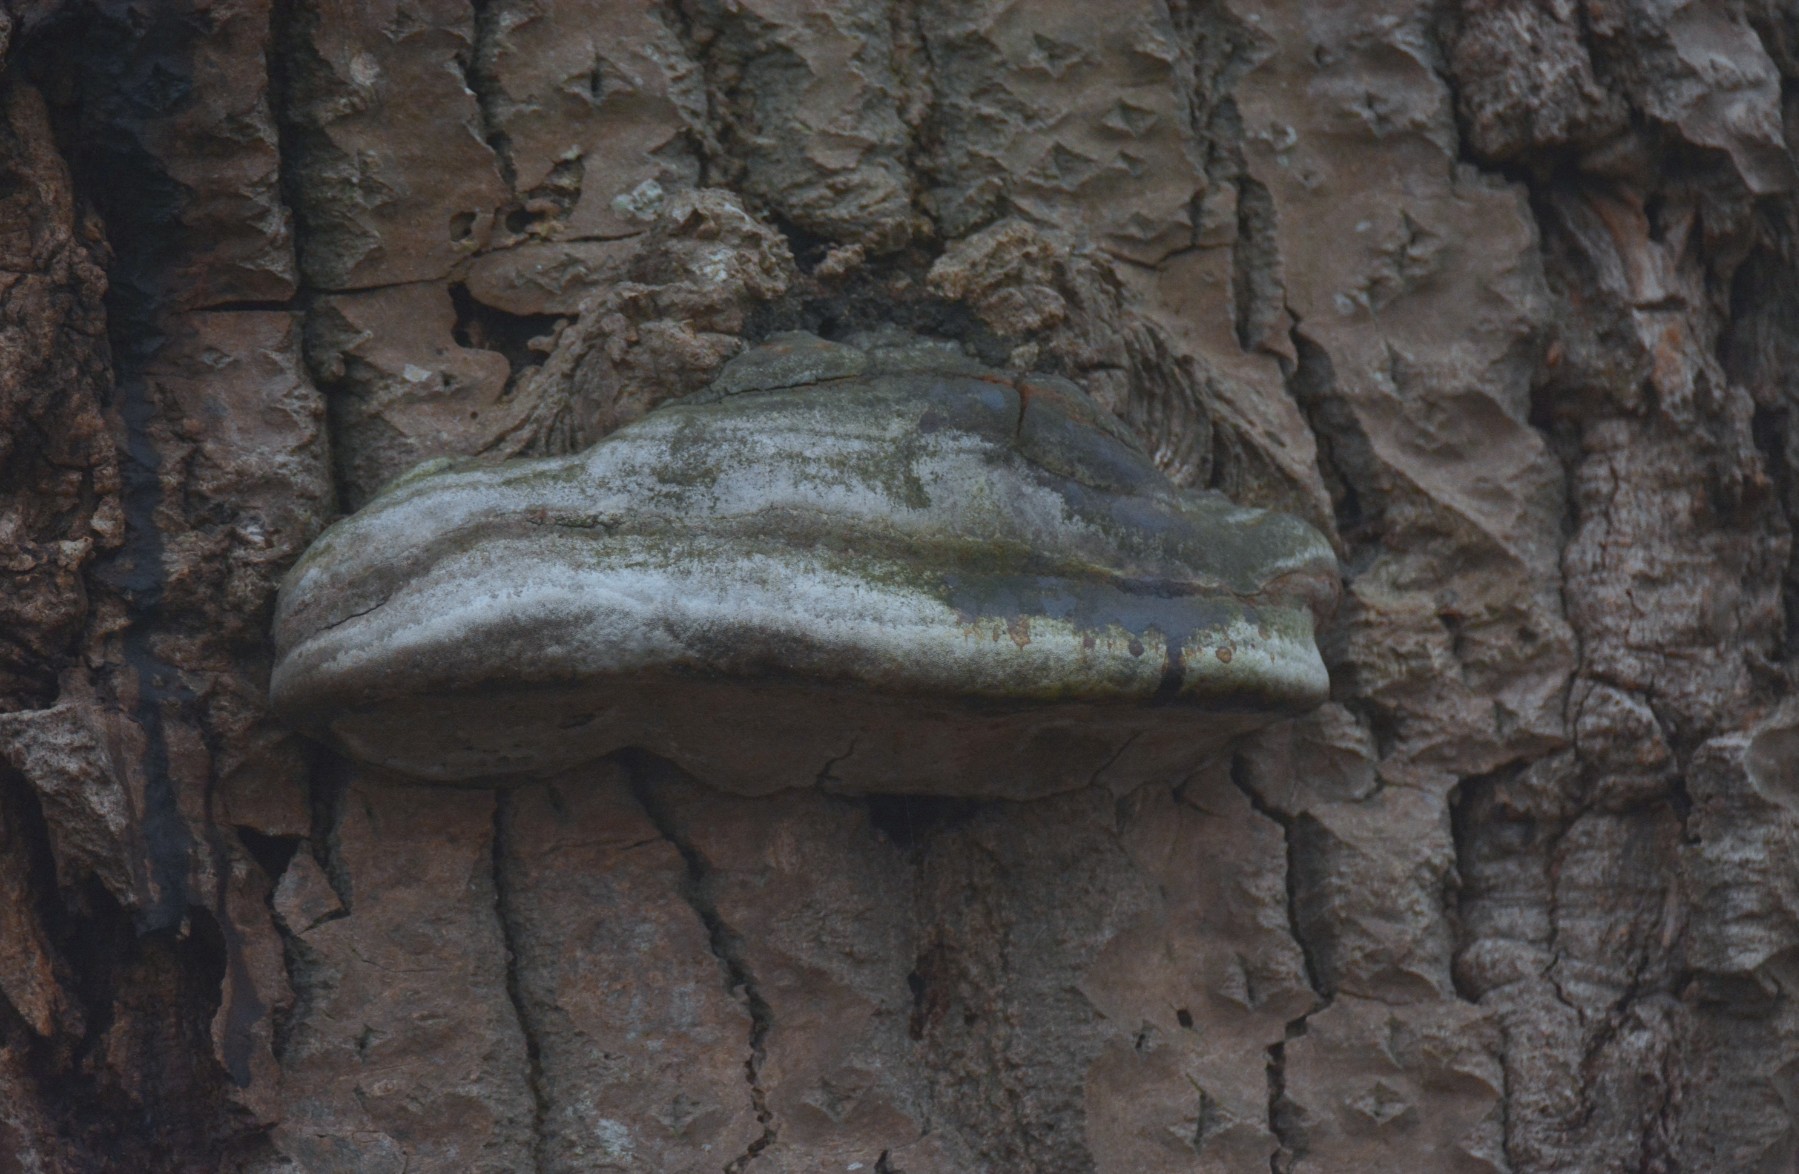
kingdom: Fungi
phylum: Basidiomycota
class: Agaricomycetes
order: Hymenochaetales
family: Hymenochaetaceae
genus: Phellinus
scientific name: Phellinus populicola
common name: poppel-ildporesvamp
